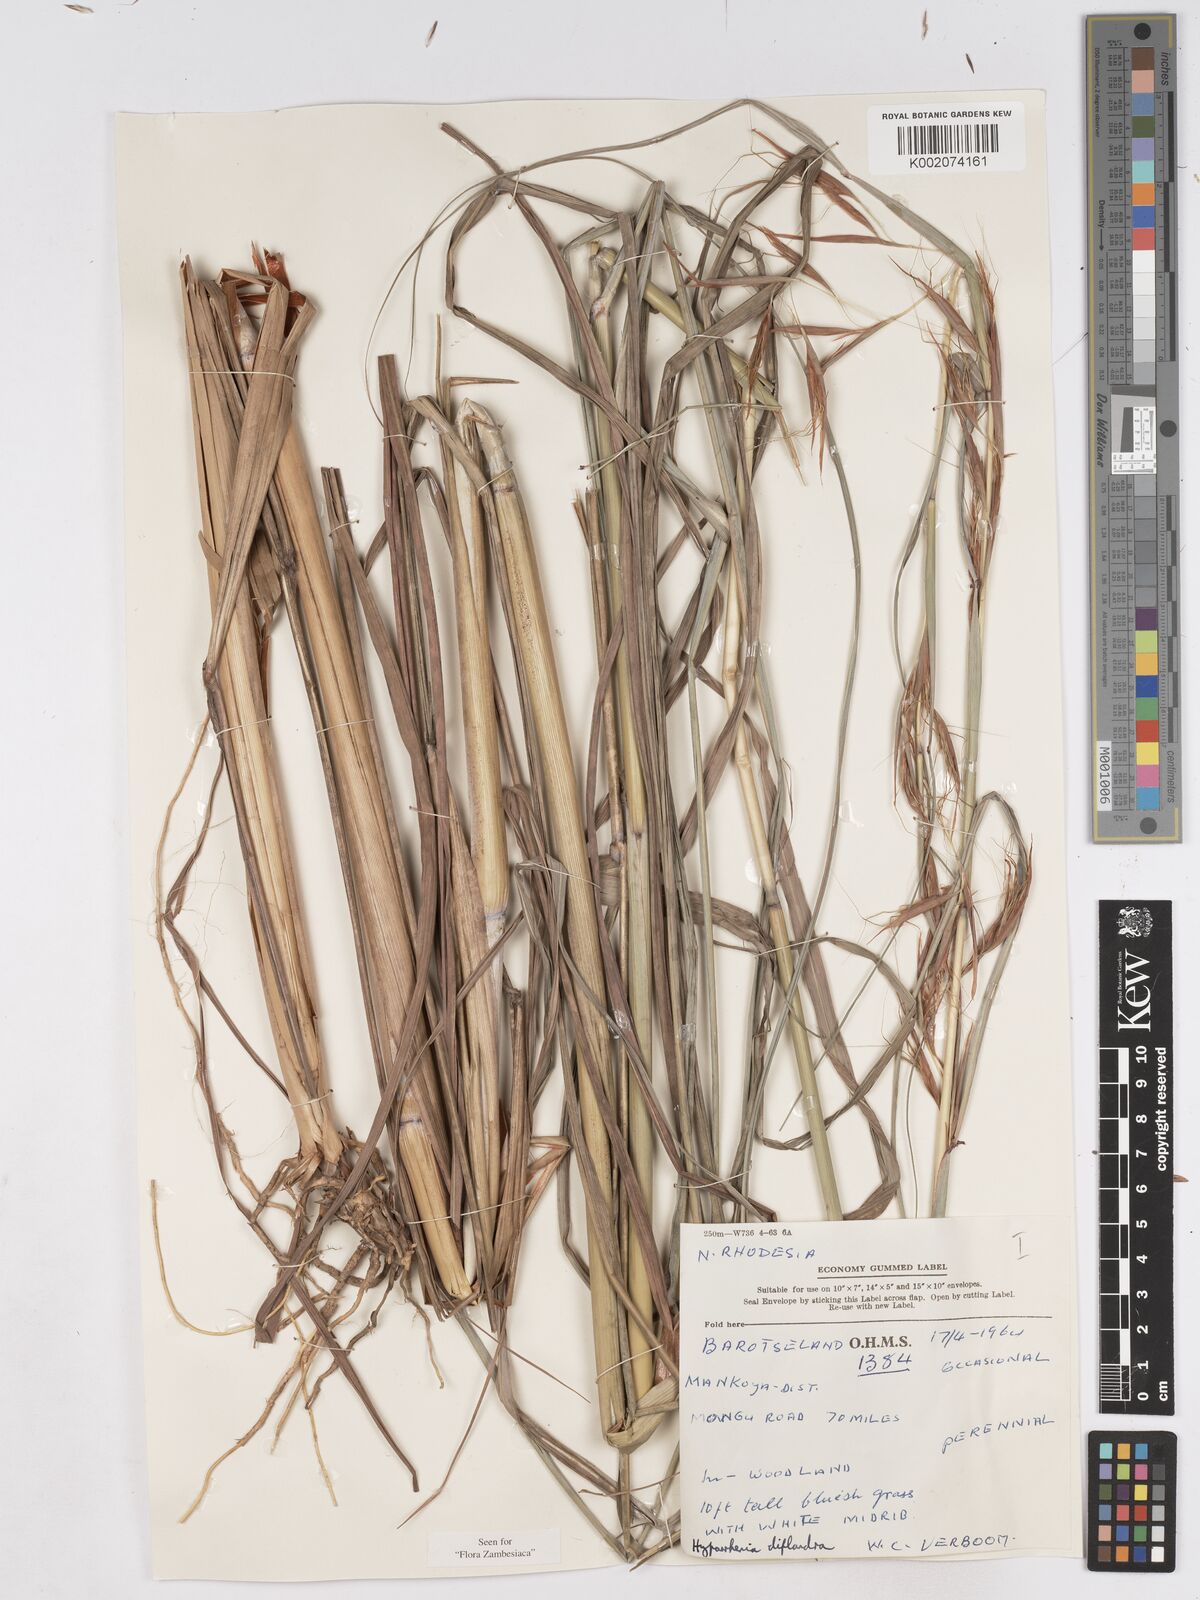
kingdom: Plantae
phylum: Tracheophyta
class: Liliopsida
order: Poales
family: Poaceae
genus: Hyparrhenia
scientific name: Hyparrhenia diplandra
